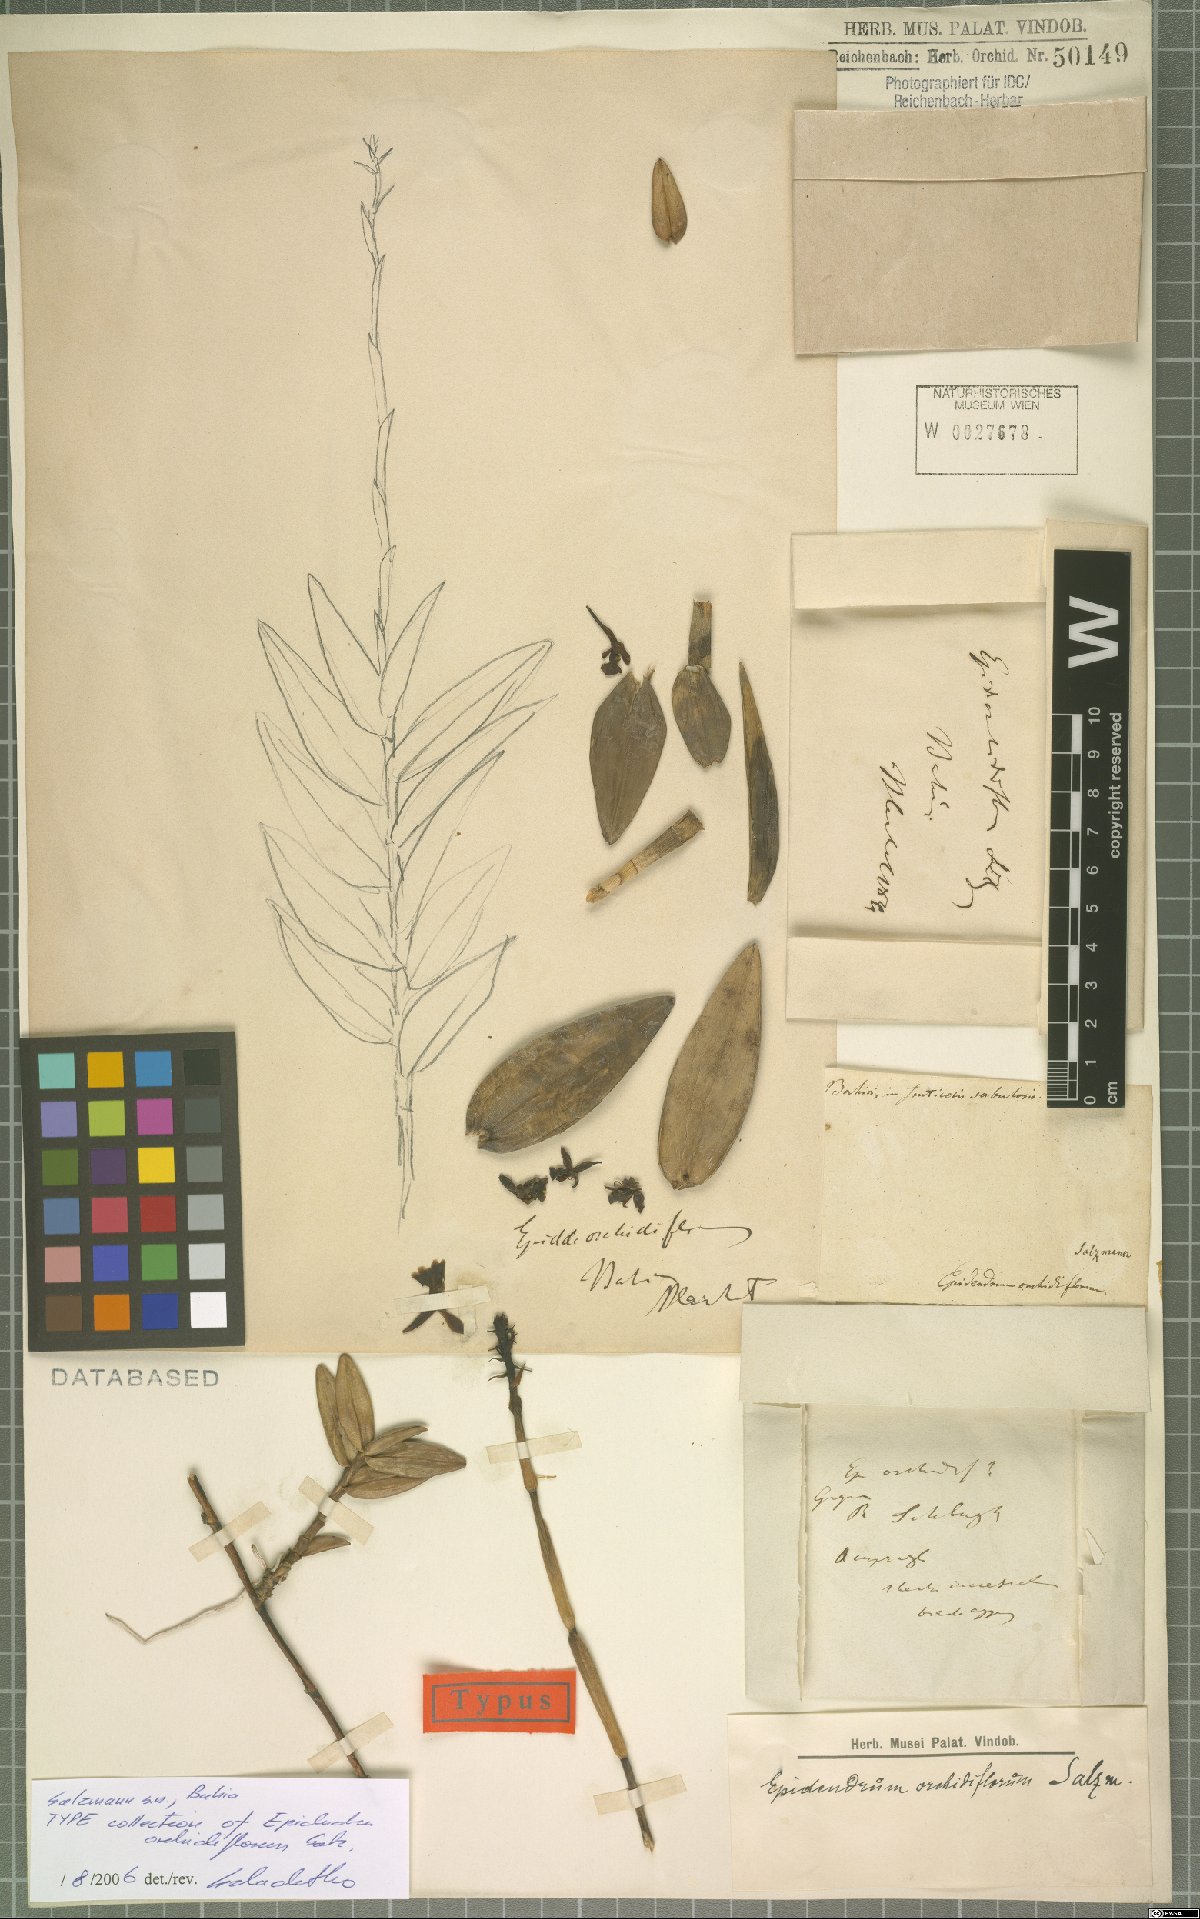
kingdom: Plantae
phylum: Tracheophyta
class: Liliopsida
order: Asparagales
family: Orchidaceae
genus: Epidendrum
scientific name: Epidendrum orchidiflorum
